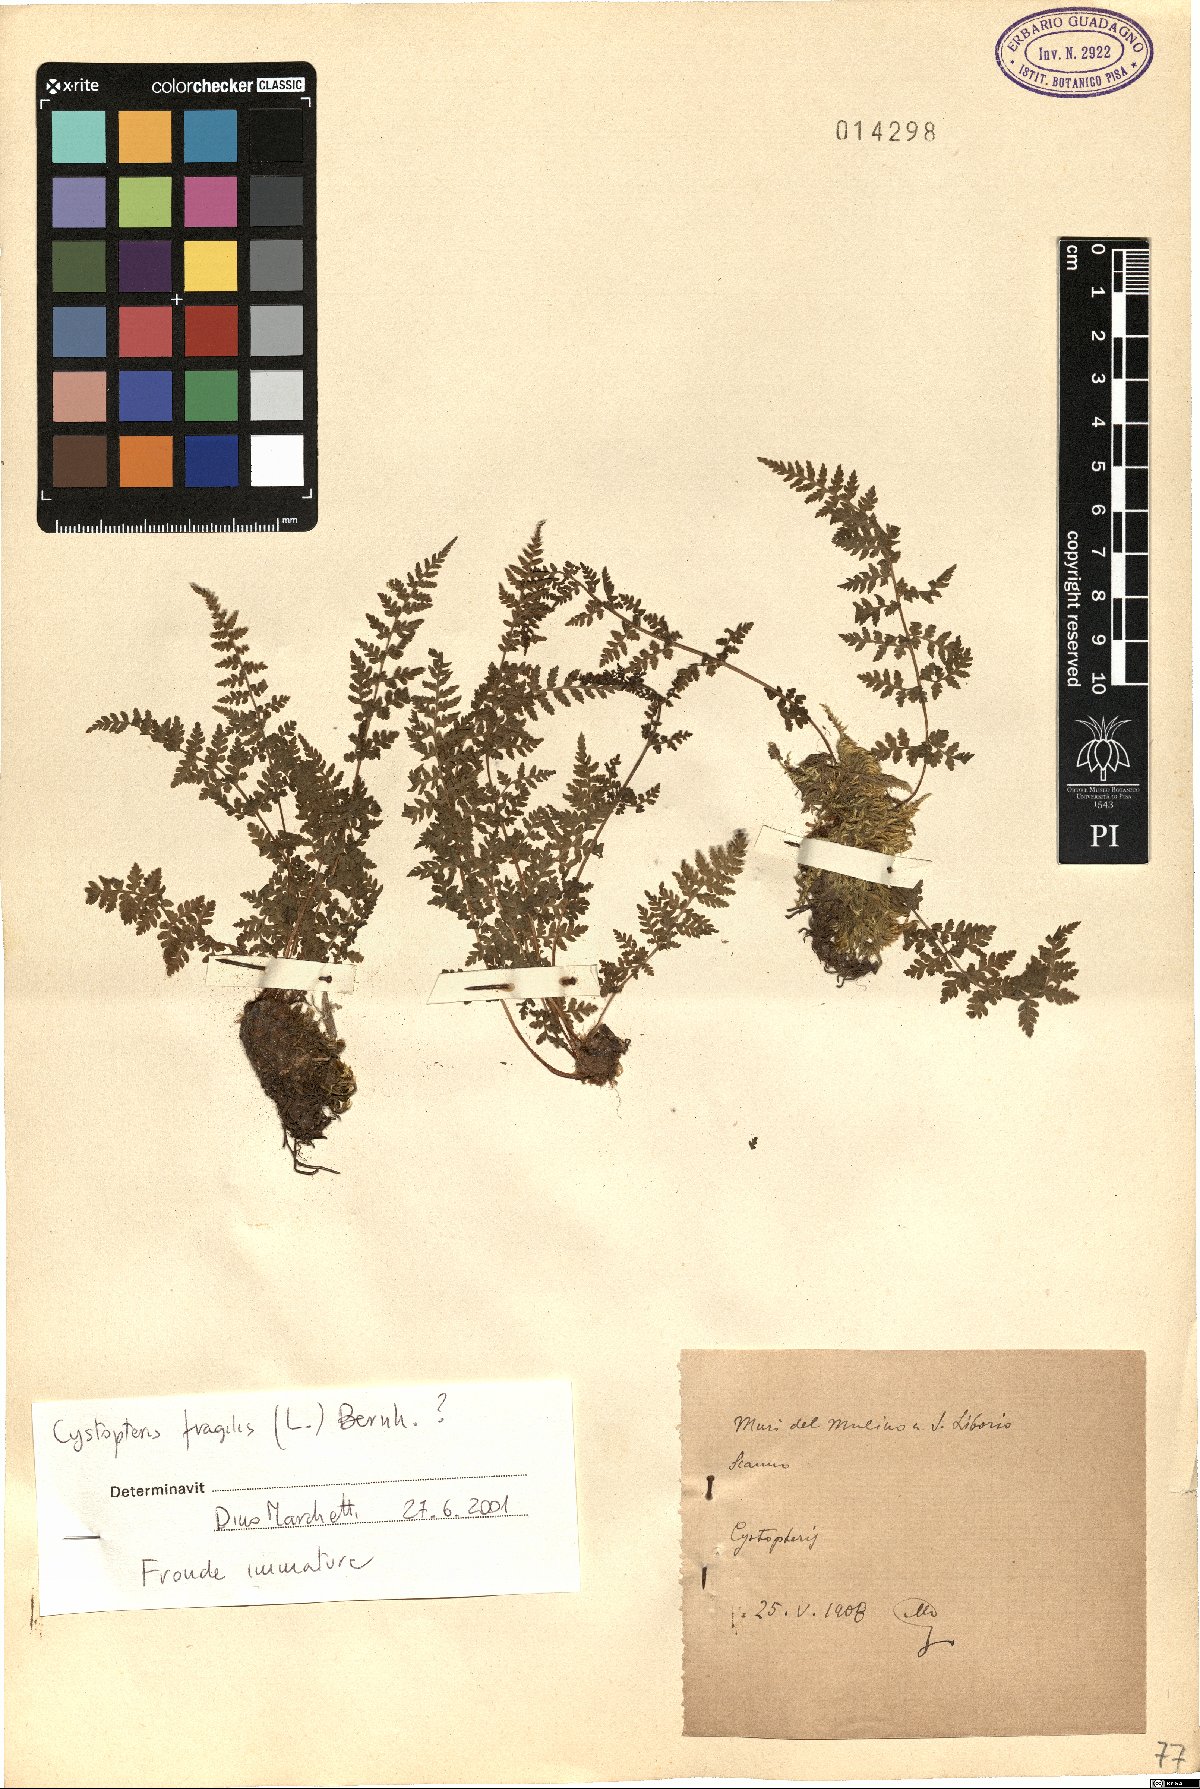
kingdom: Plantae
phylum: Tracheophyta
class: Polypodiopsida
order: Polypodiales
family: Cystopteridaceae
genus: Cystopteris
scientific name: Cystopteris fragilis
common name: Brittle bladder fern
